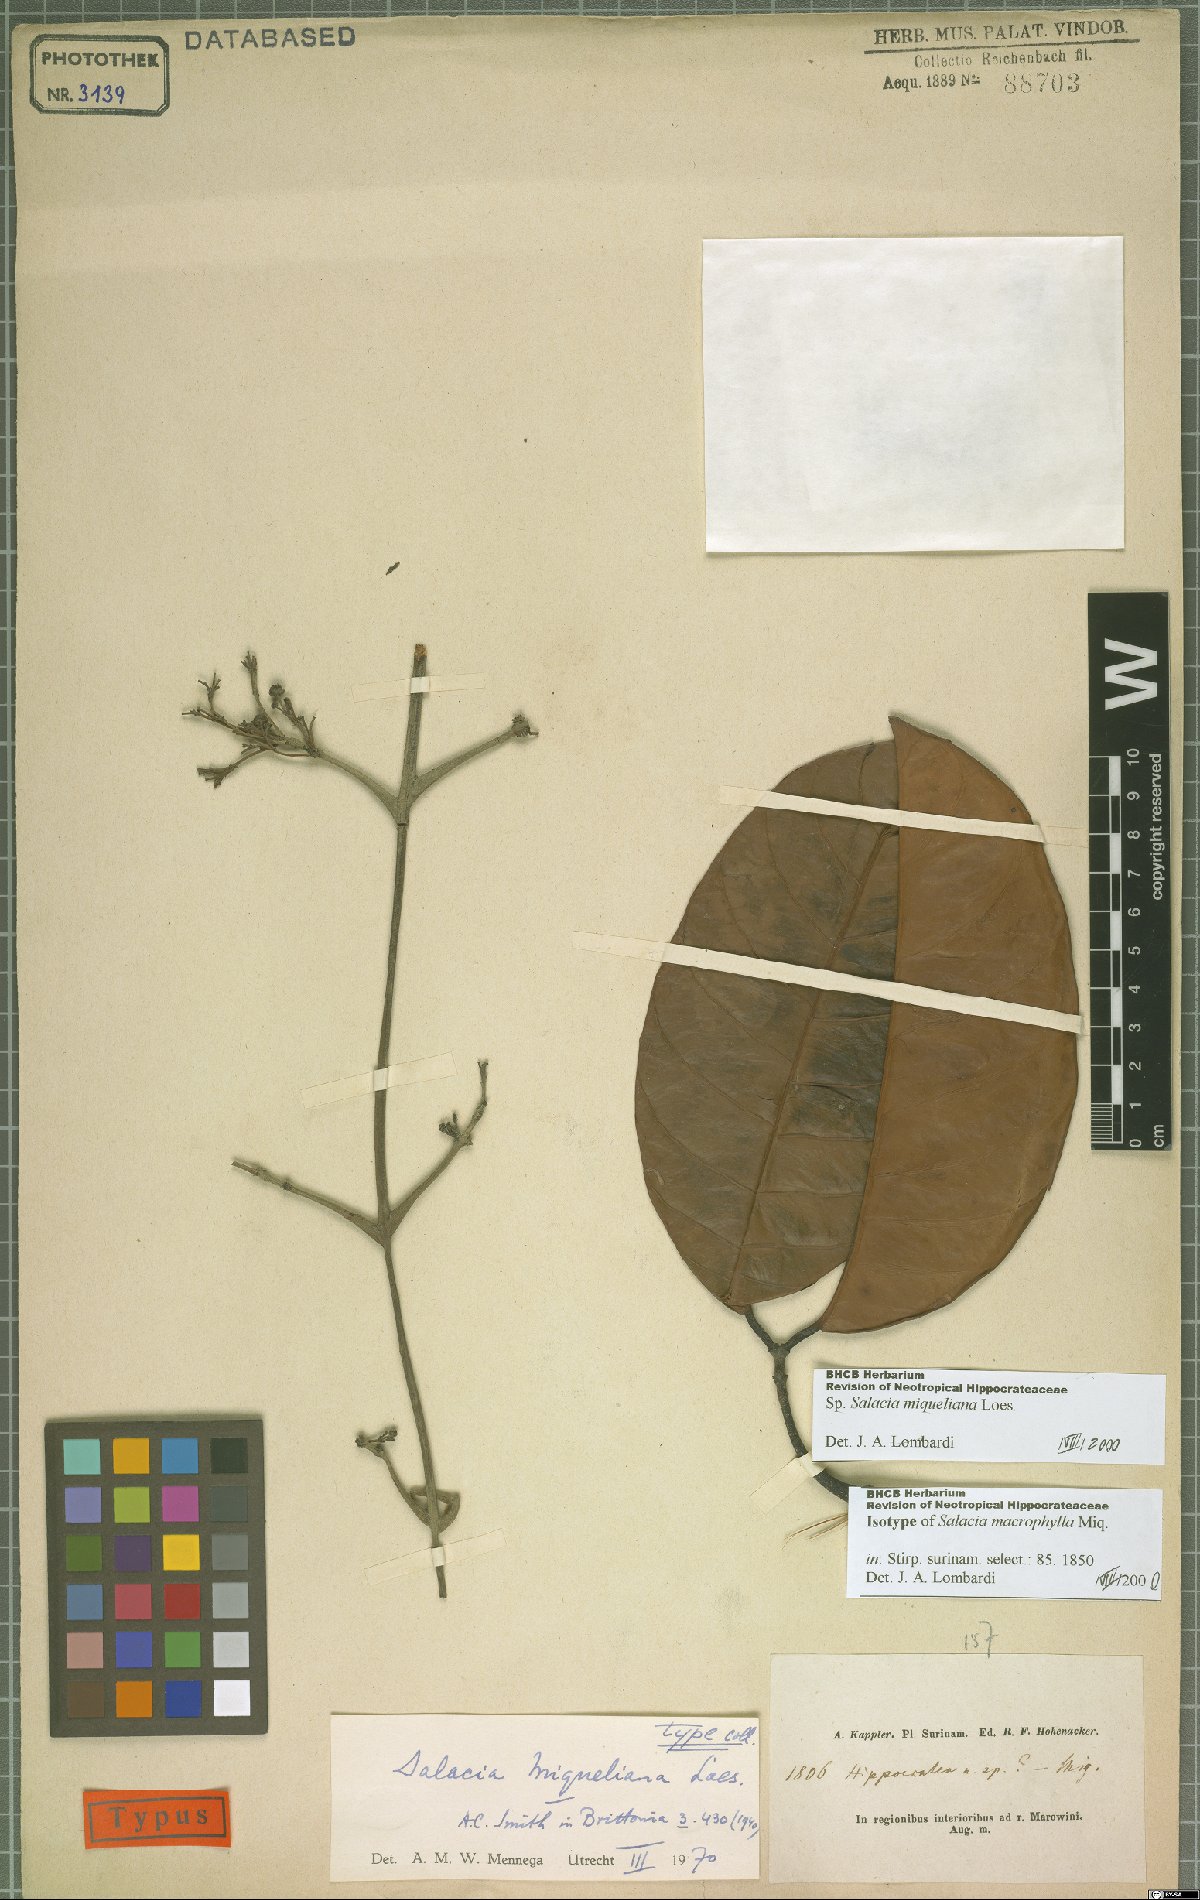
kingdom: Plantae
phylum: Tracheophyta
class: Magnoliopsida
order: Celastrales
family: Celastraceae
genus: Salacia
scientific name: Salacia miqueliana
